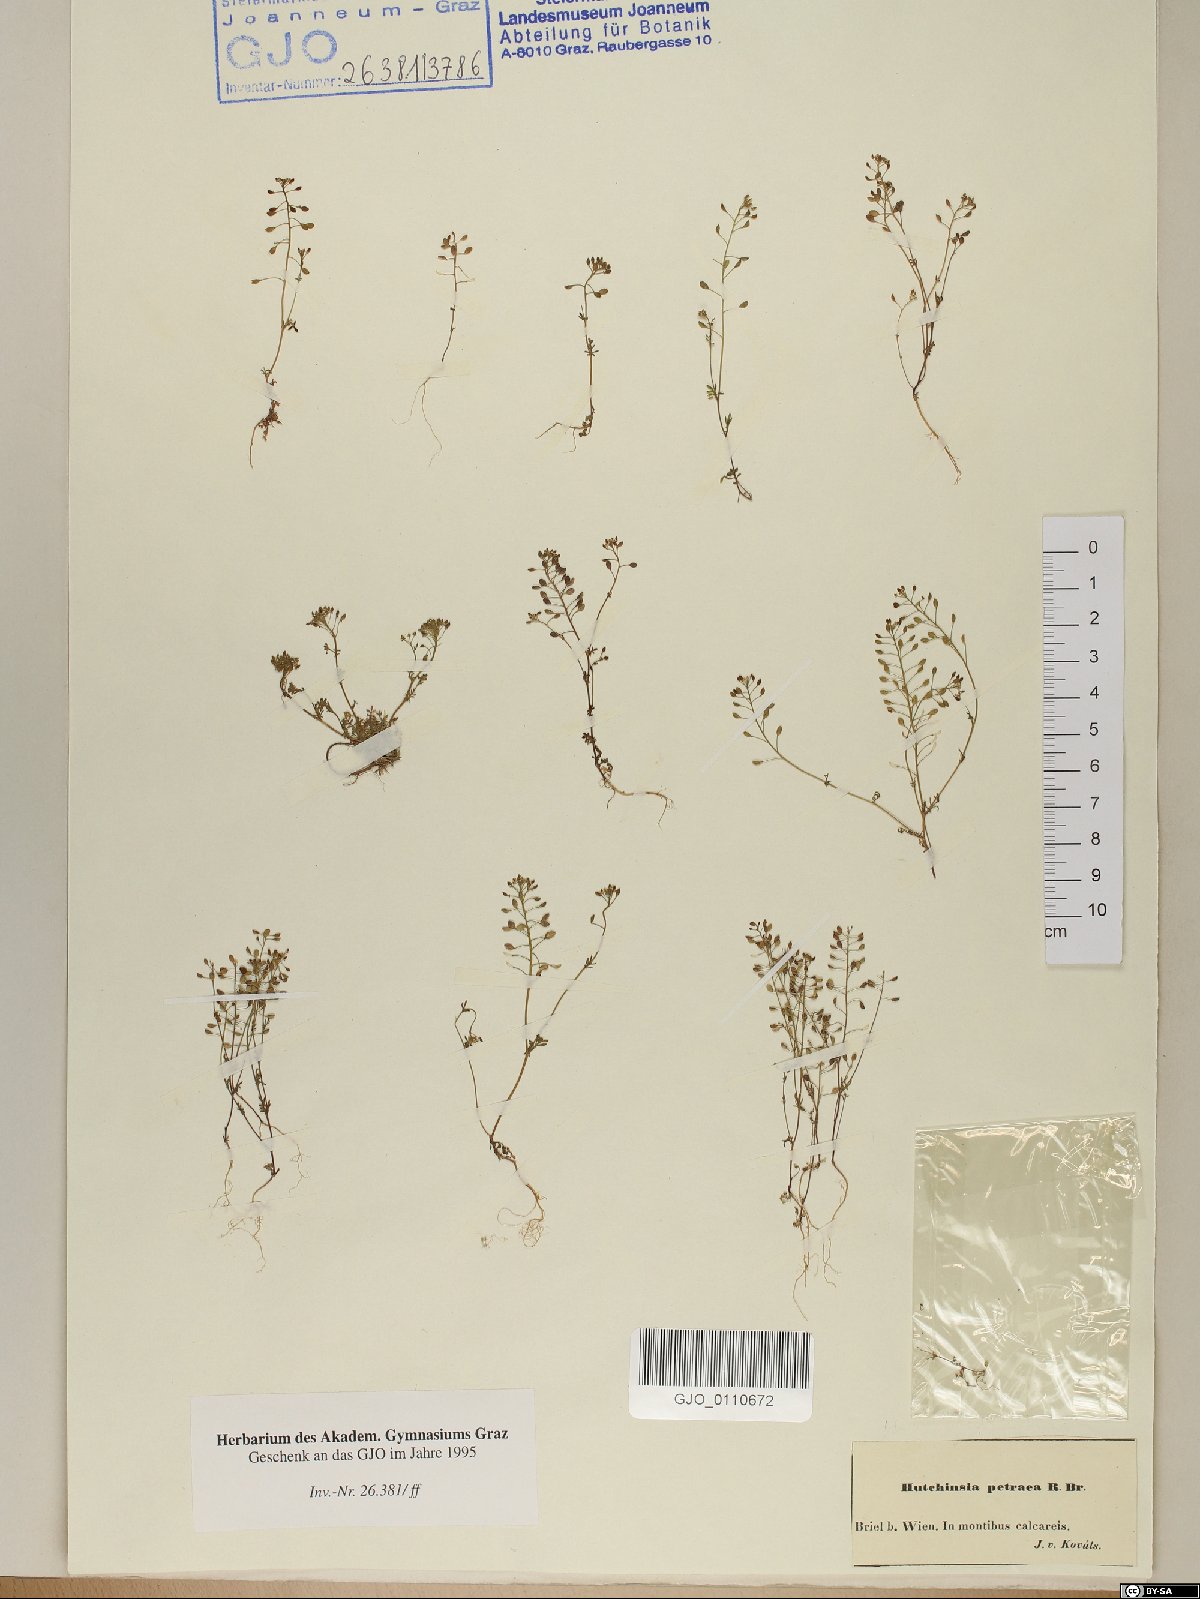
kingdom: Plantae
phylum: Tracheophyta
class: Magnoliopsida
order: Brassicales
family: Brassicaceae
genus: Hornungia
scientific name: Hornungia petraea
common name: Hutchinsia
